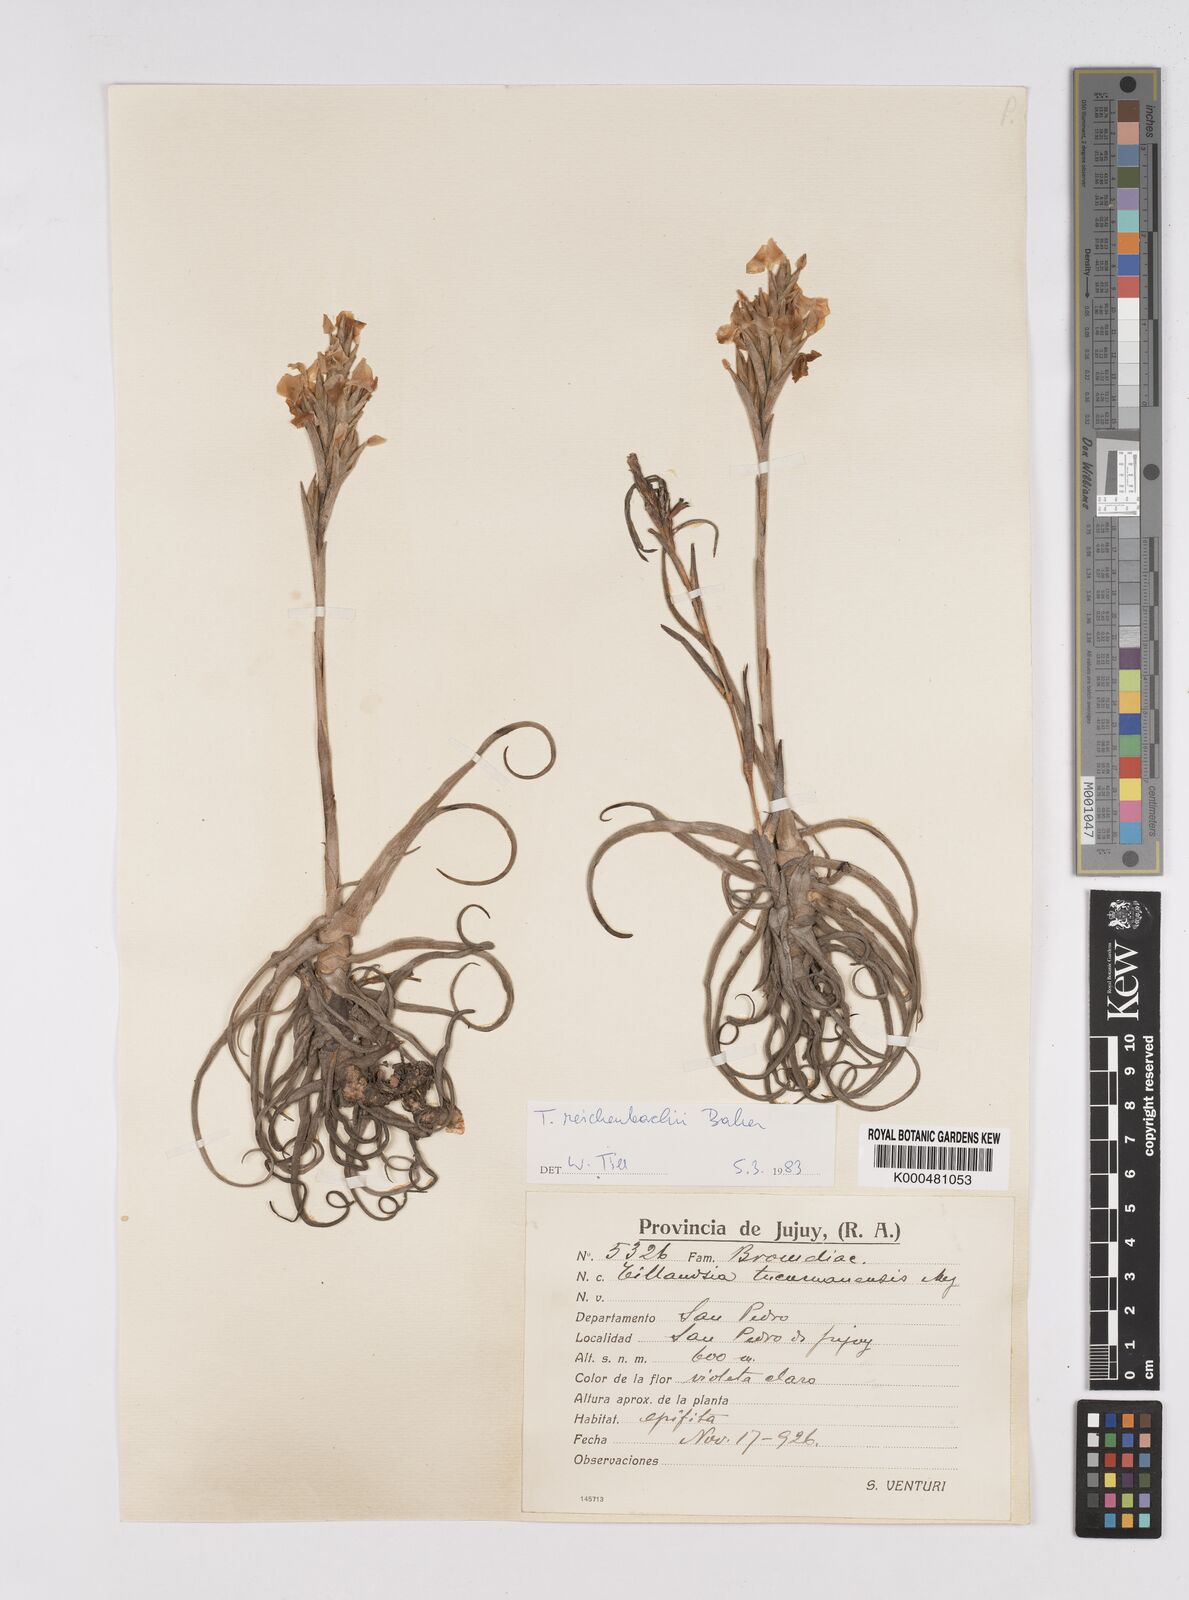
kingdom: Plantae
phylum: Tracheophyta
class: Liliopsida
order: Poales
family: Bromeliaceae
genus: Tillandsia
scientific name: Tillandsia reichenbachii
